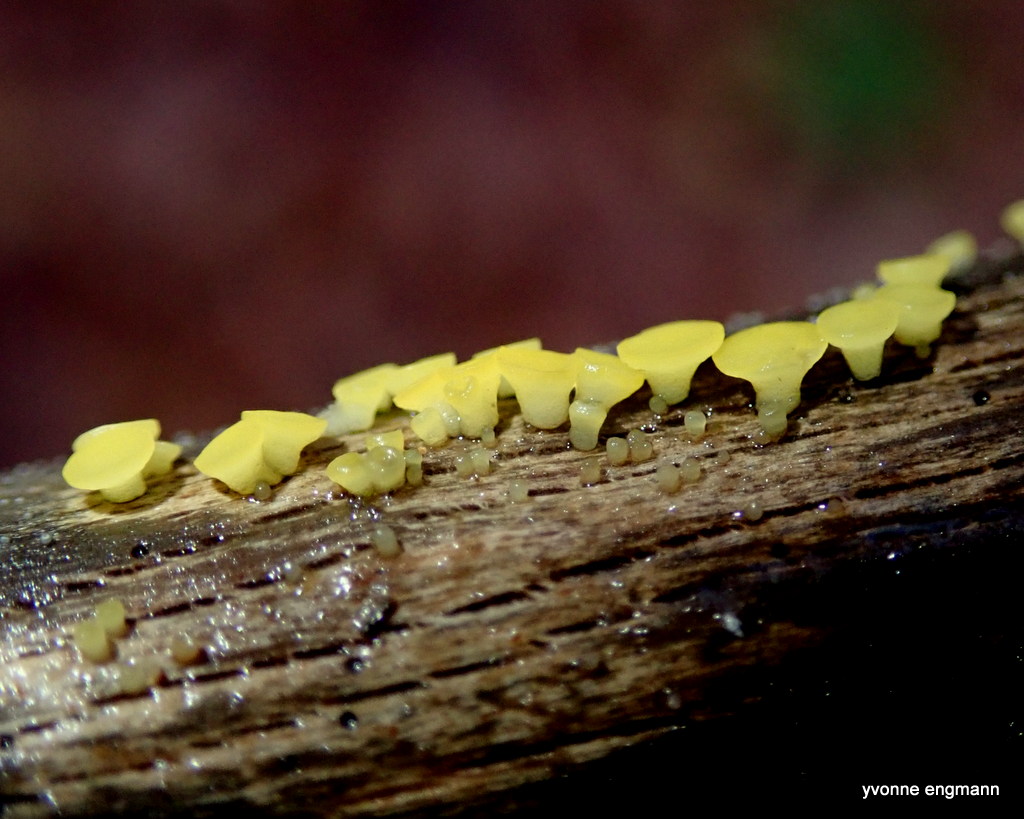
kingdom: Fungi
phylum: Ascomycota
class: Leotiomycetes
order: Helotiales
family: Pezizellaceae
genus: Calycina
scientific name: Calycina citrina
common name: almindelig gulskive
